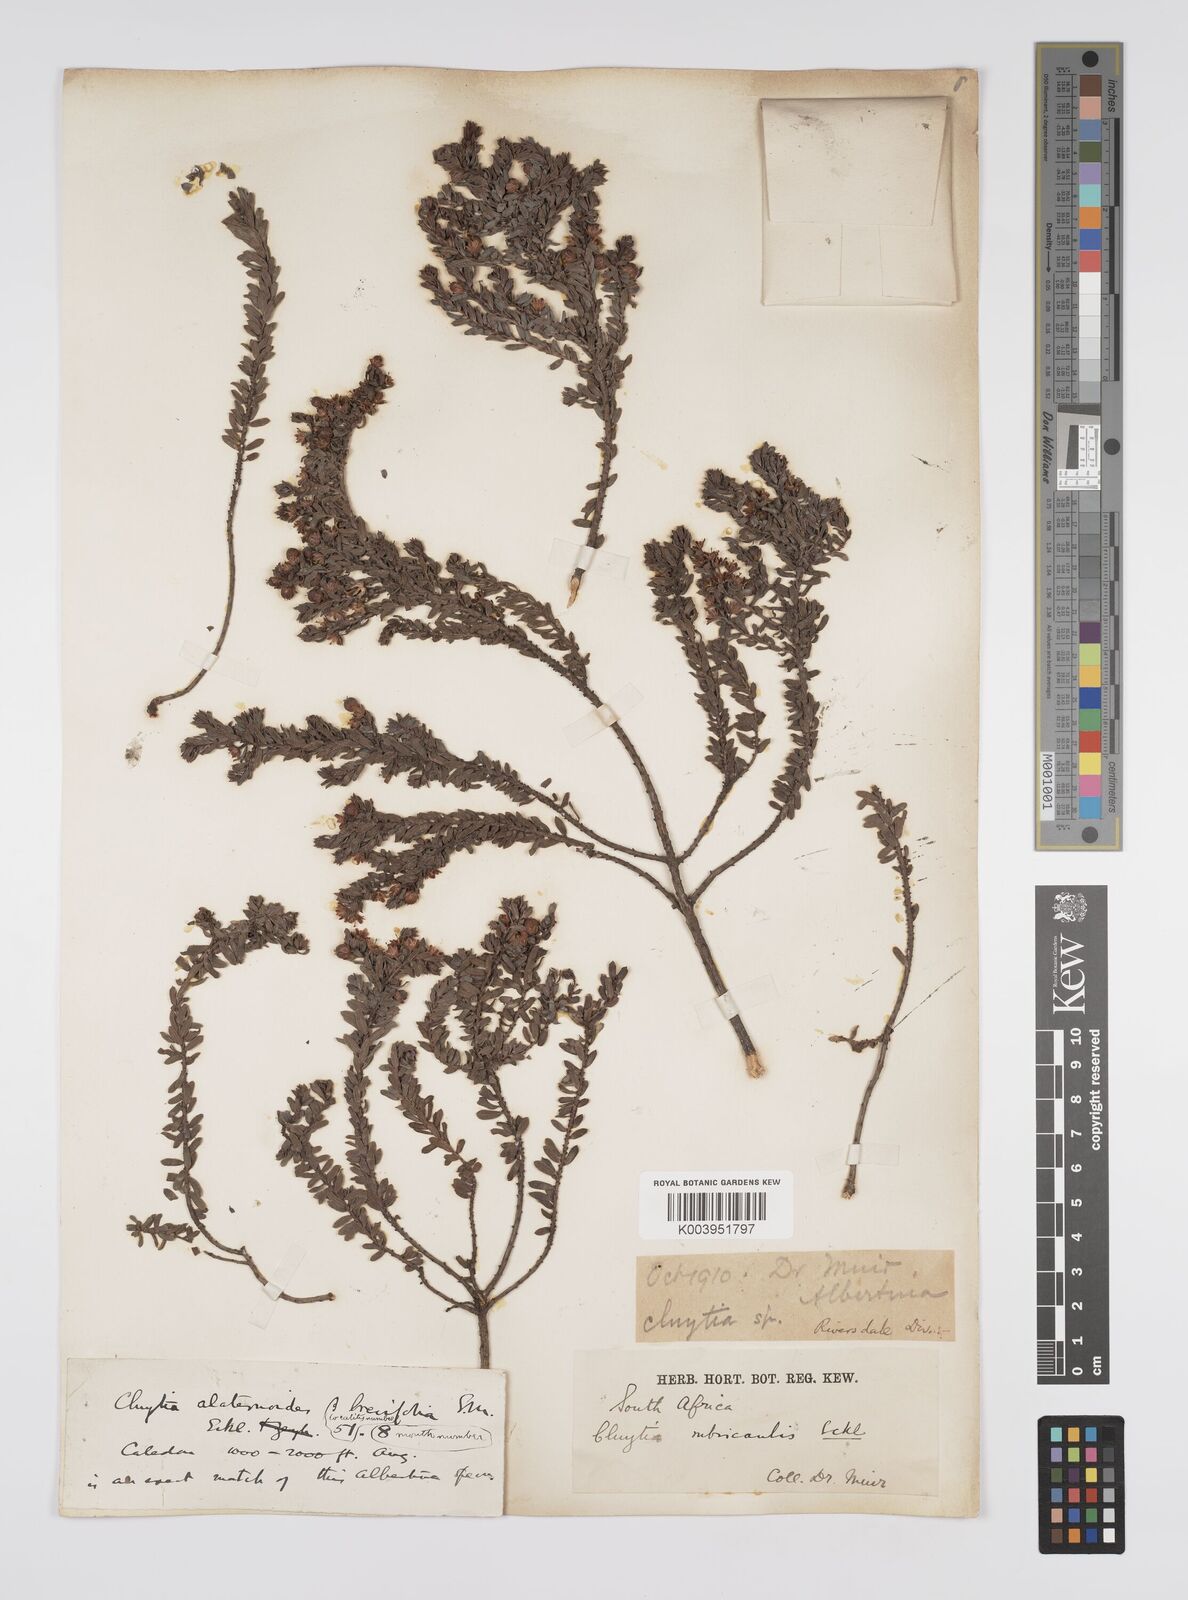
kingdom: Plantae
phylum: Tracheophyta
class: Magnoliopsida
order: Malpighiales
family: Peraceae
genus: Clutia
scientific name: Clutia rubricaulis
